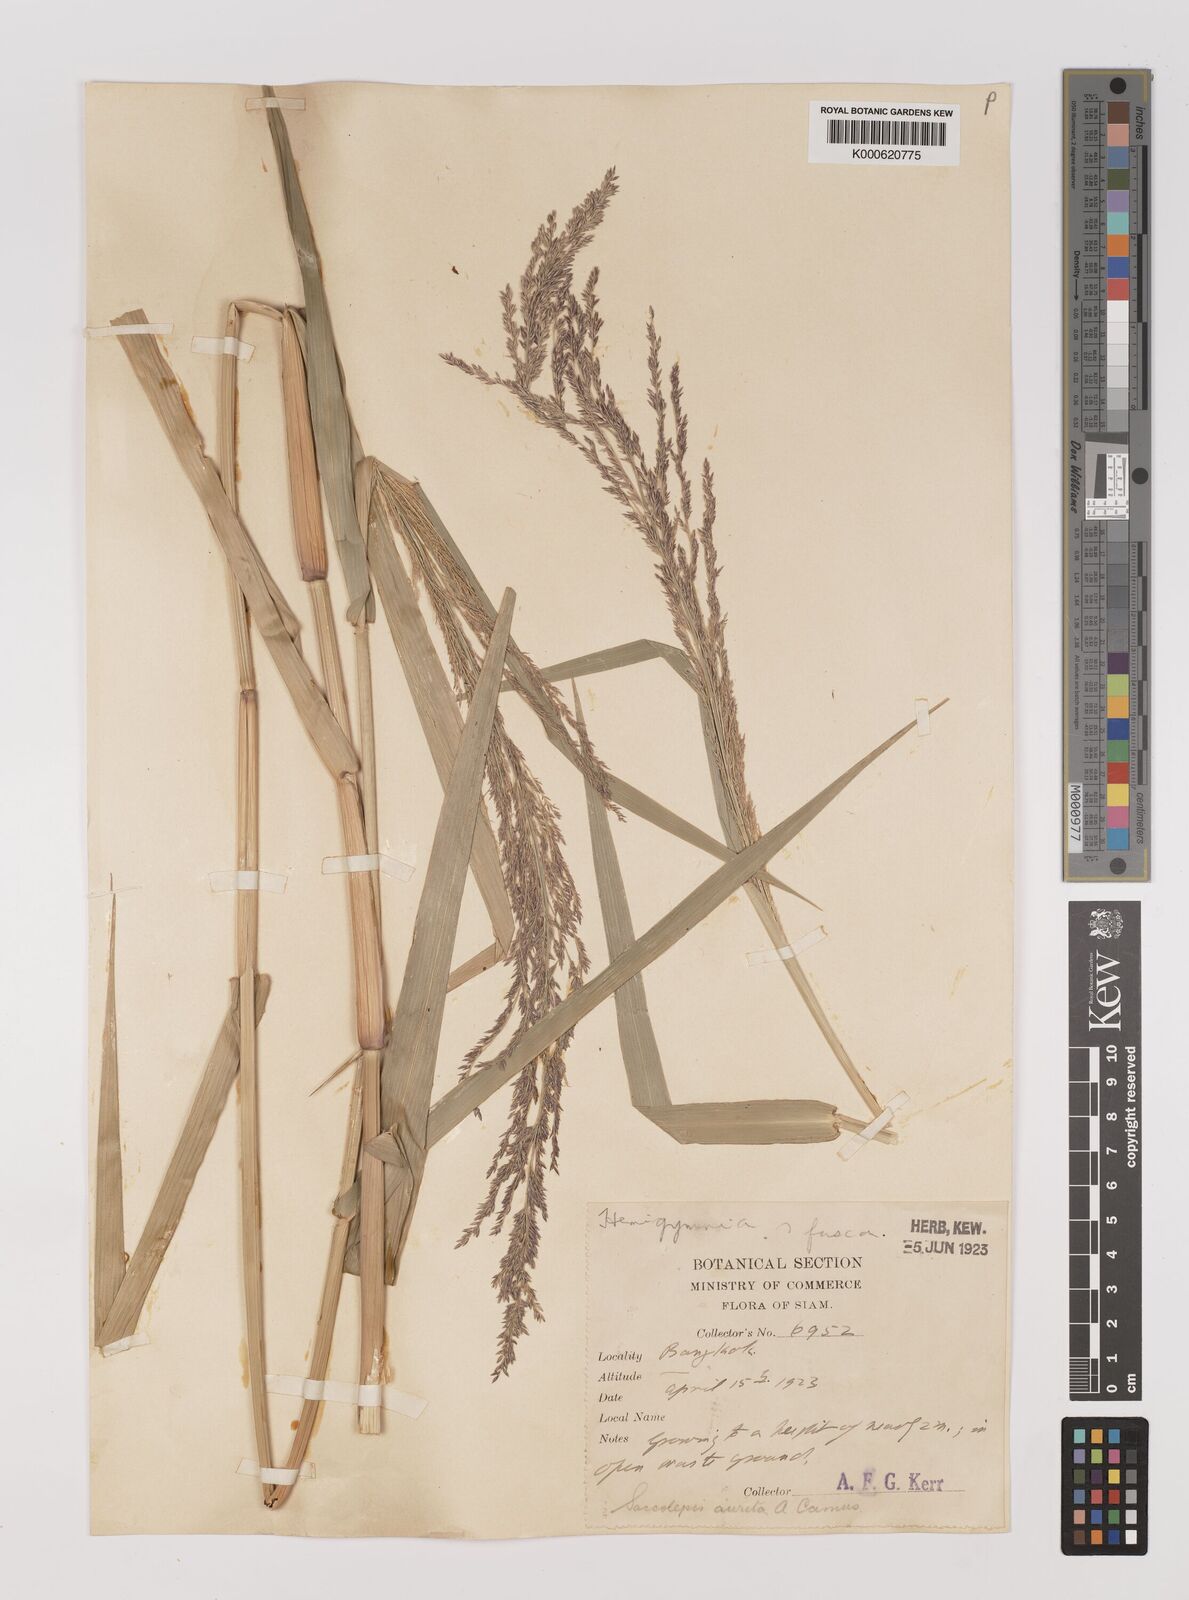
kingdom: Plantae
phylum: Tracheophyta
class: Liliopsida
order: Poales
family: Poaceae
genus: Hymenachne
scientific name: Hymenachne aurita
